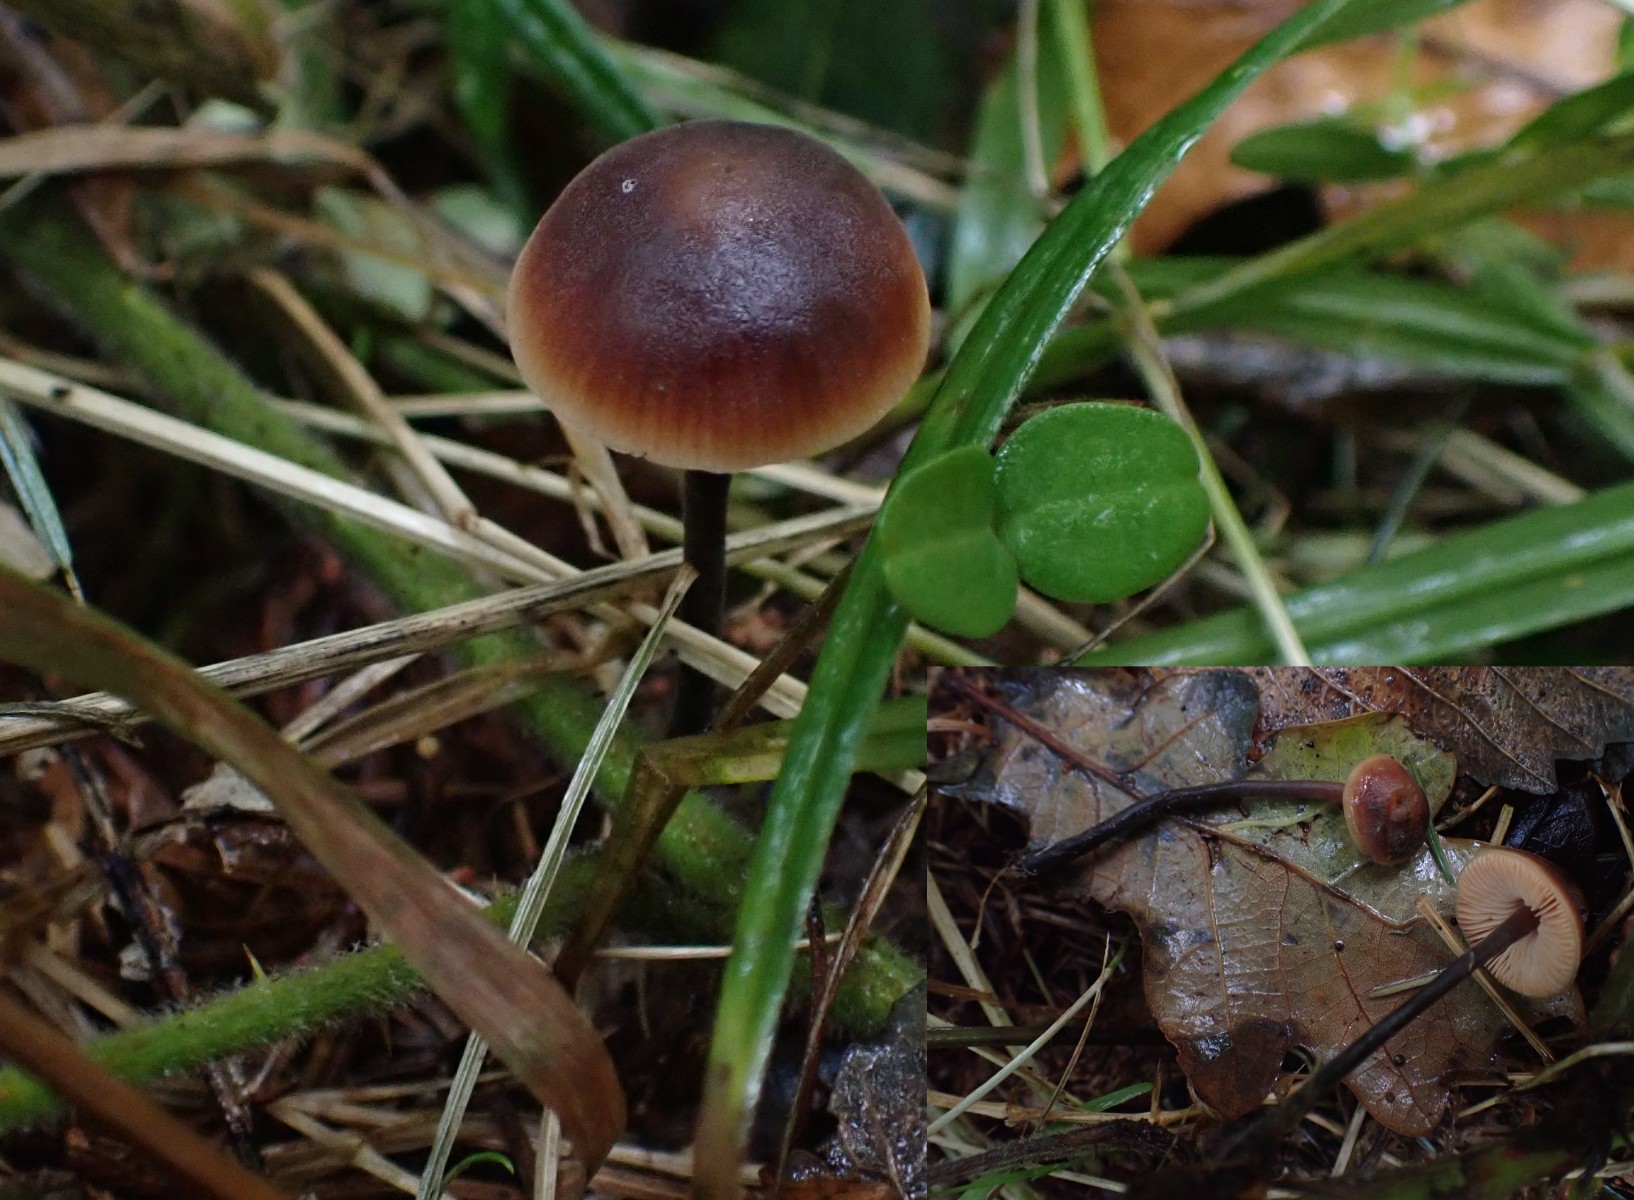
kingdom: Fungi
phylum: Basidiomycota
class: Agaricomycetes
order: Agaricales
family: Macrocystidiaceae
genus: Macrocystidia
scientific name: Macrocystidia cucumis
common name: agurkehat
